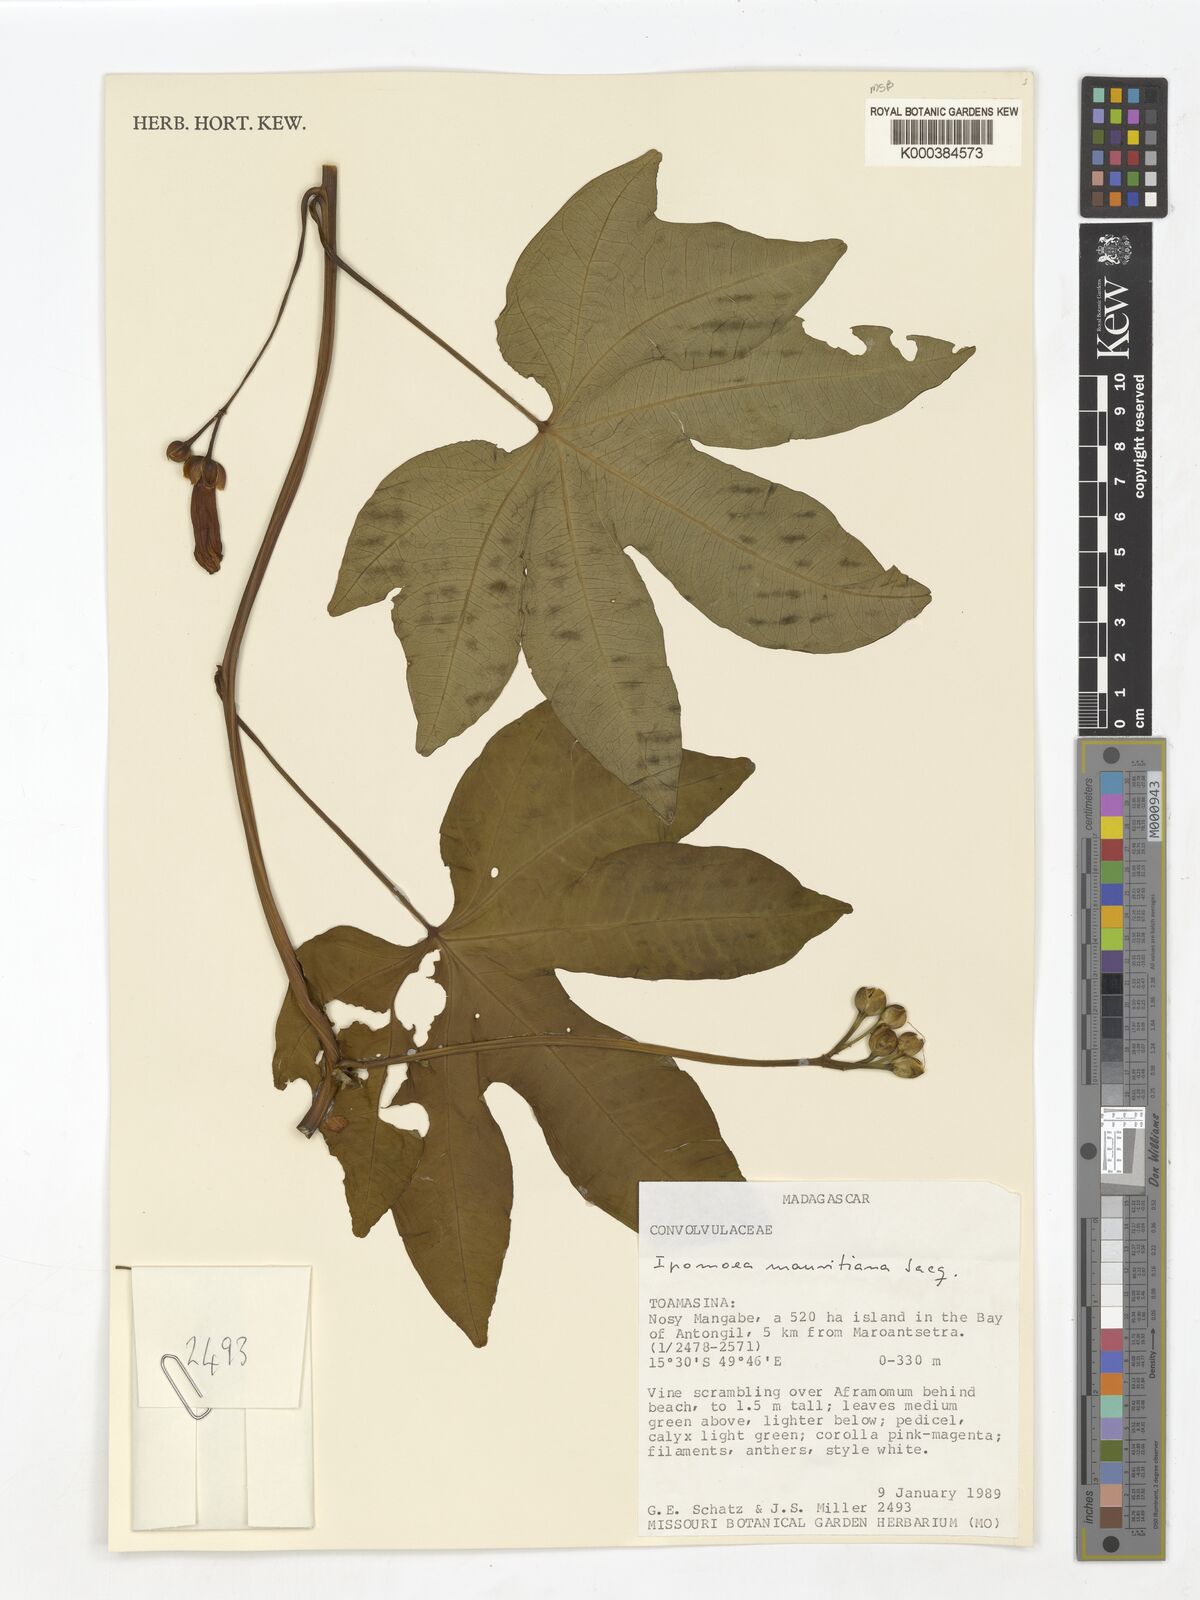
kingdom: Plantae
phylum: Tracheophyta
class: Magnoliopsida
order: Solanales
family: Convolvulaceae
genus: Ipomoea
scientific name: Ipomoea mauritiana
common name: Mauritanian convolvulus
